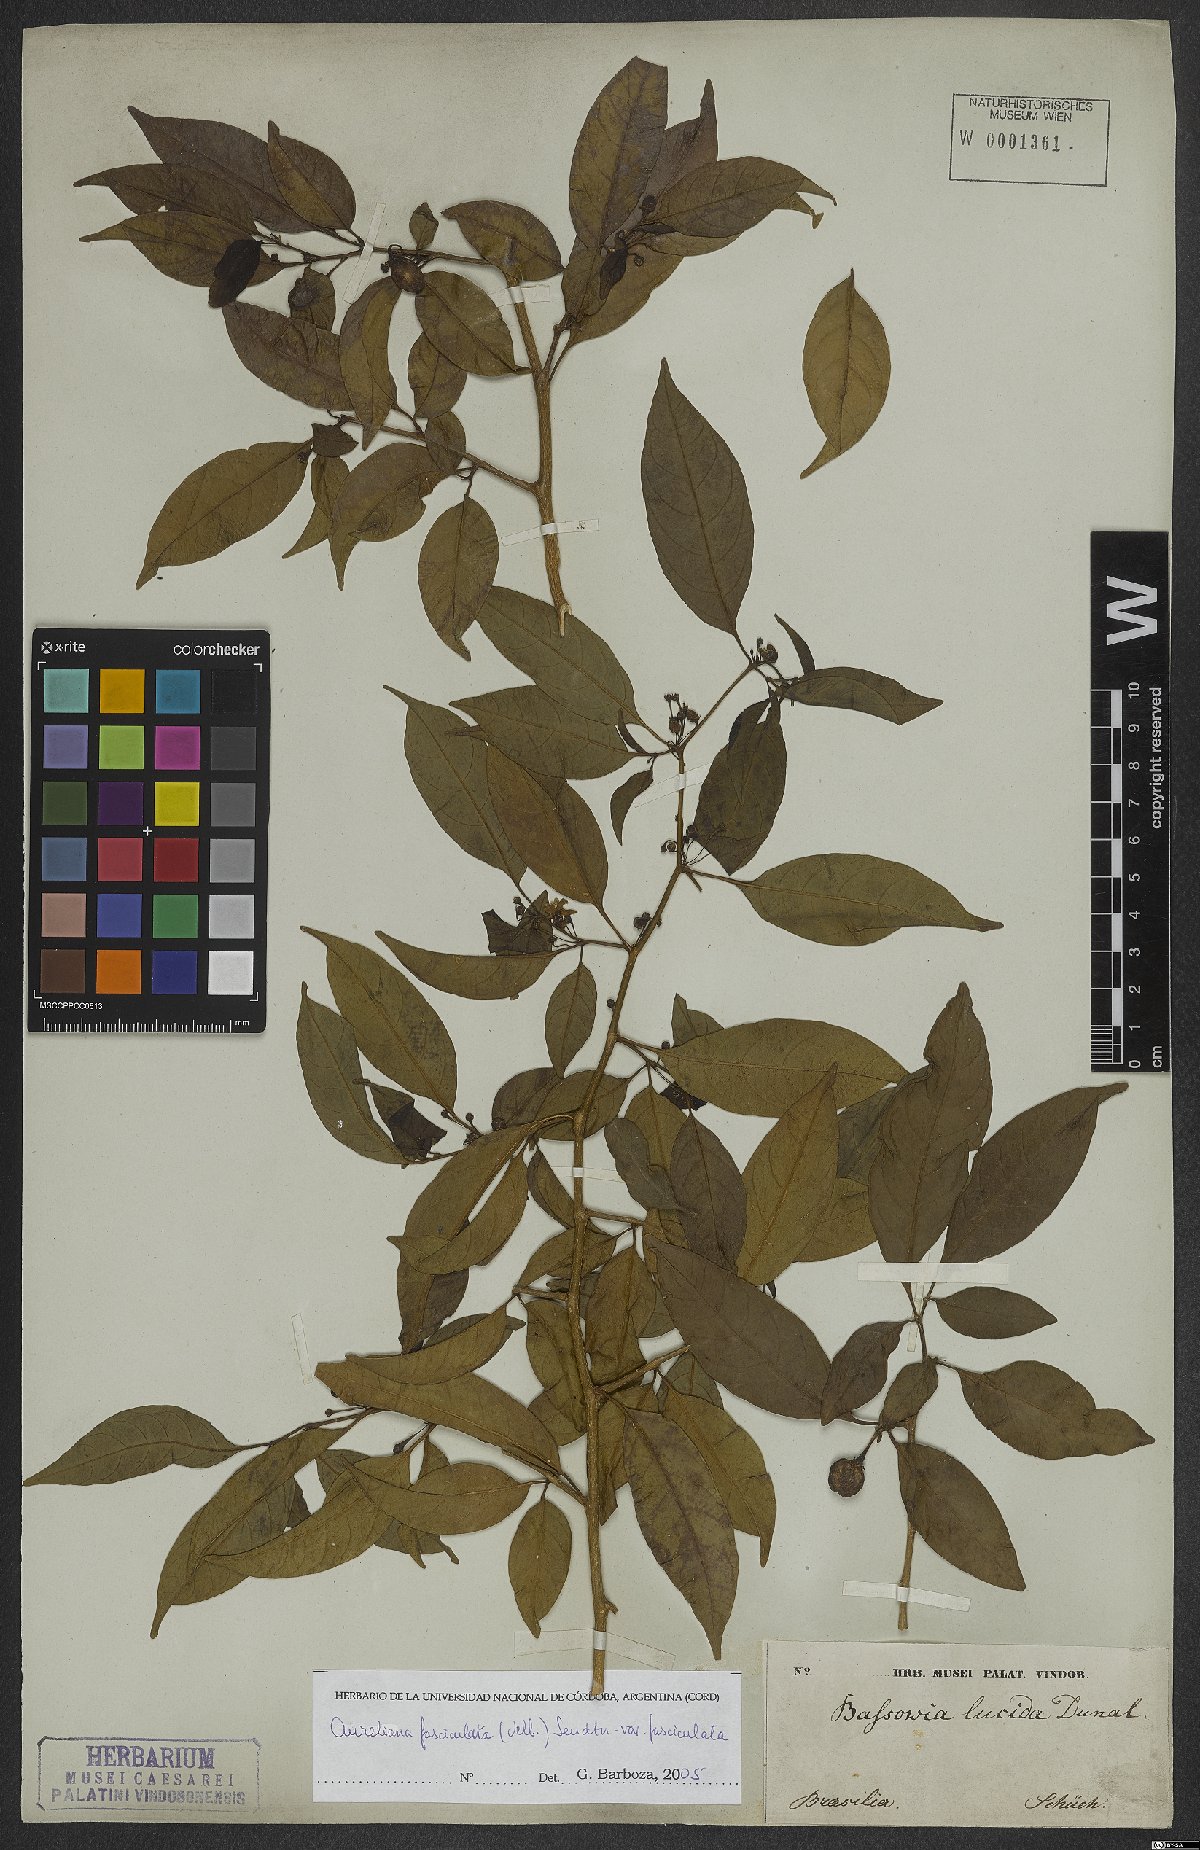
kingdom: Plantae
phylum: Tracheophyta
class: Magnoliopsida
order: Solanales
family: Solanaceae
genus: Athenaea
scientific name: Athenaea fasciculata
